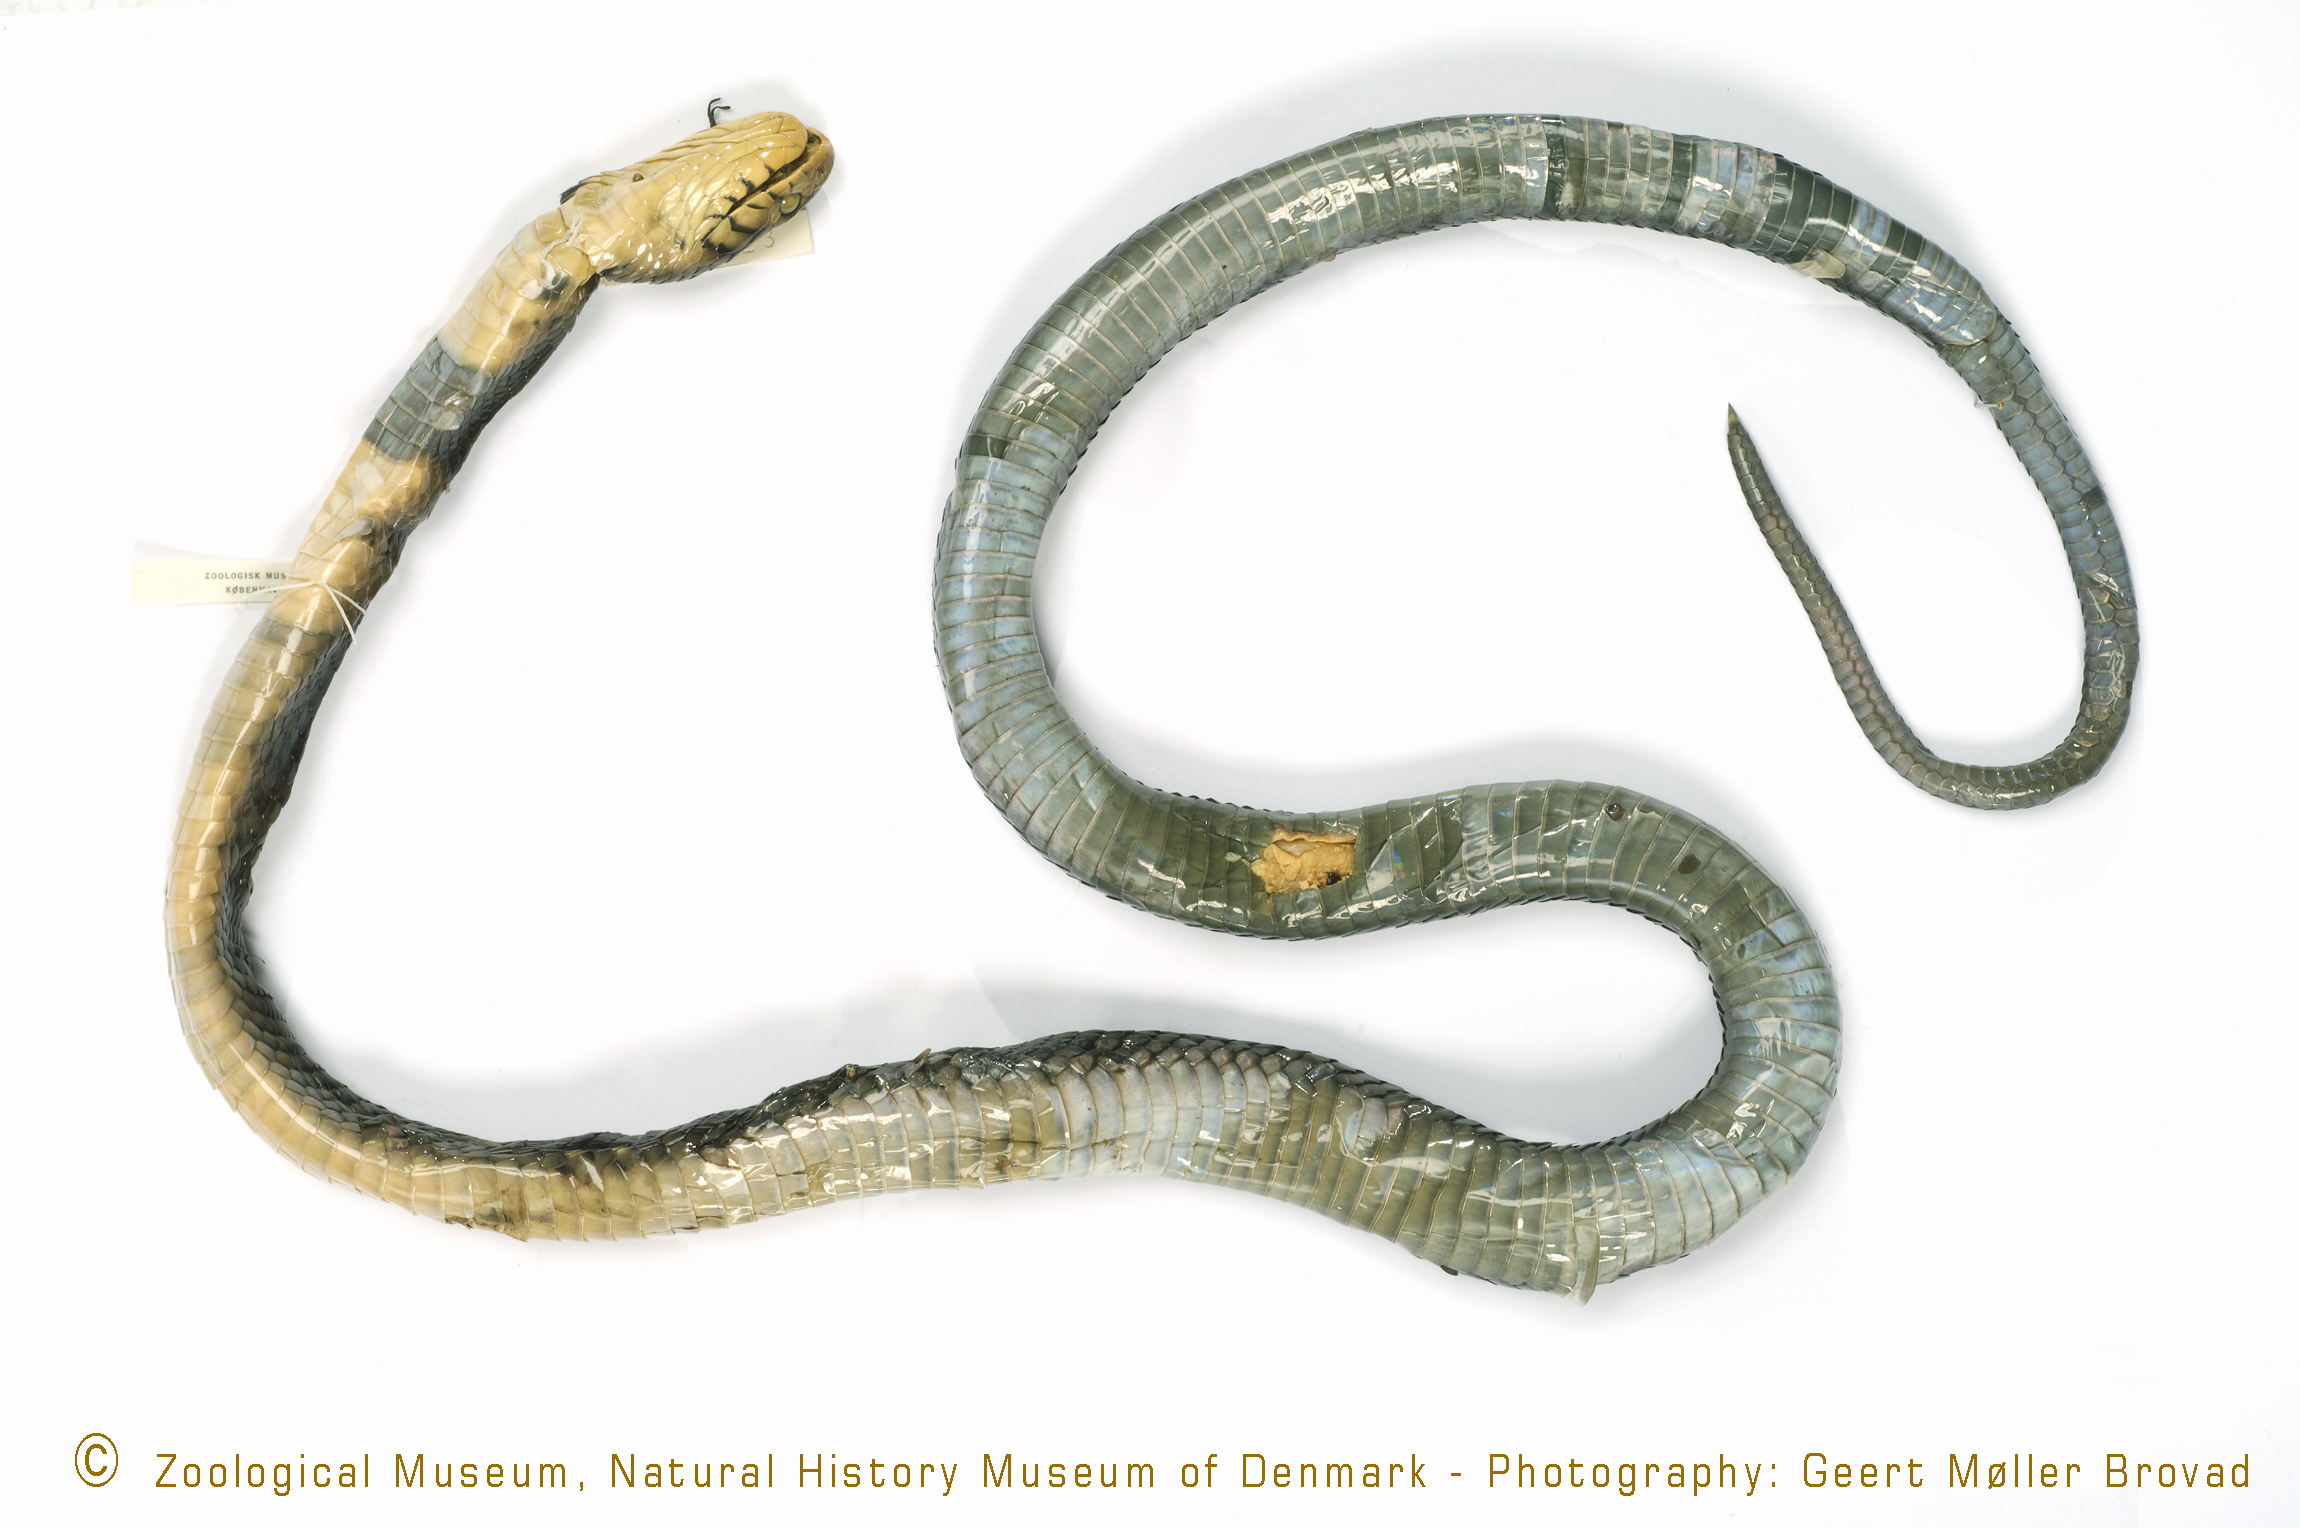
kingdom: Animalia
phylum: Chordata
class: Squamata
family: Elapidae
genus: Naja
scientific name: Naja melanoleuca
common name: Central africa forest cobra
